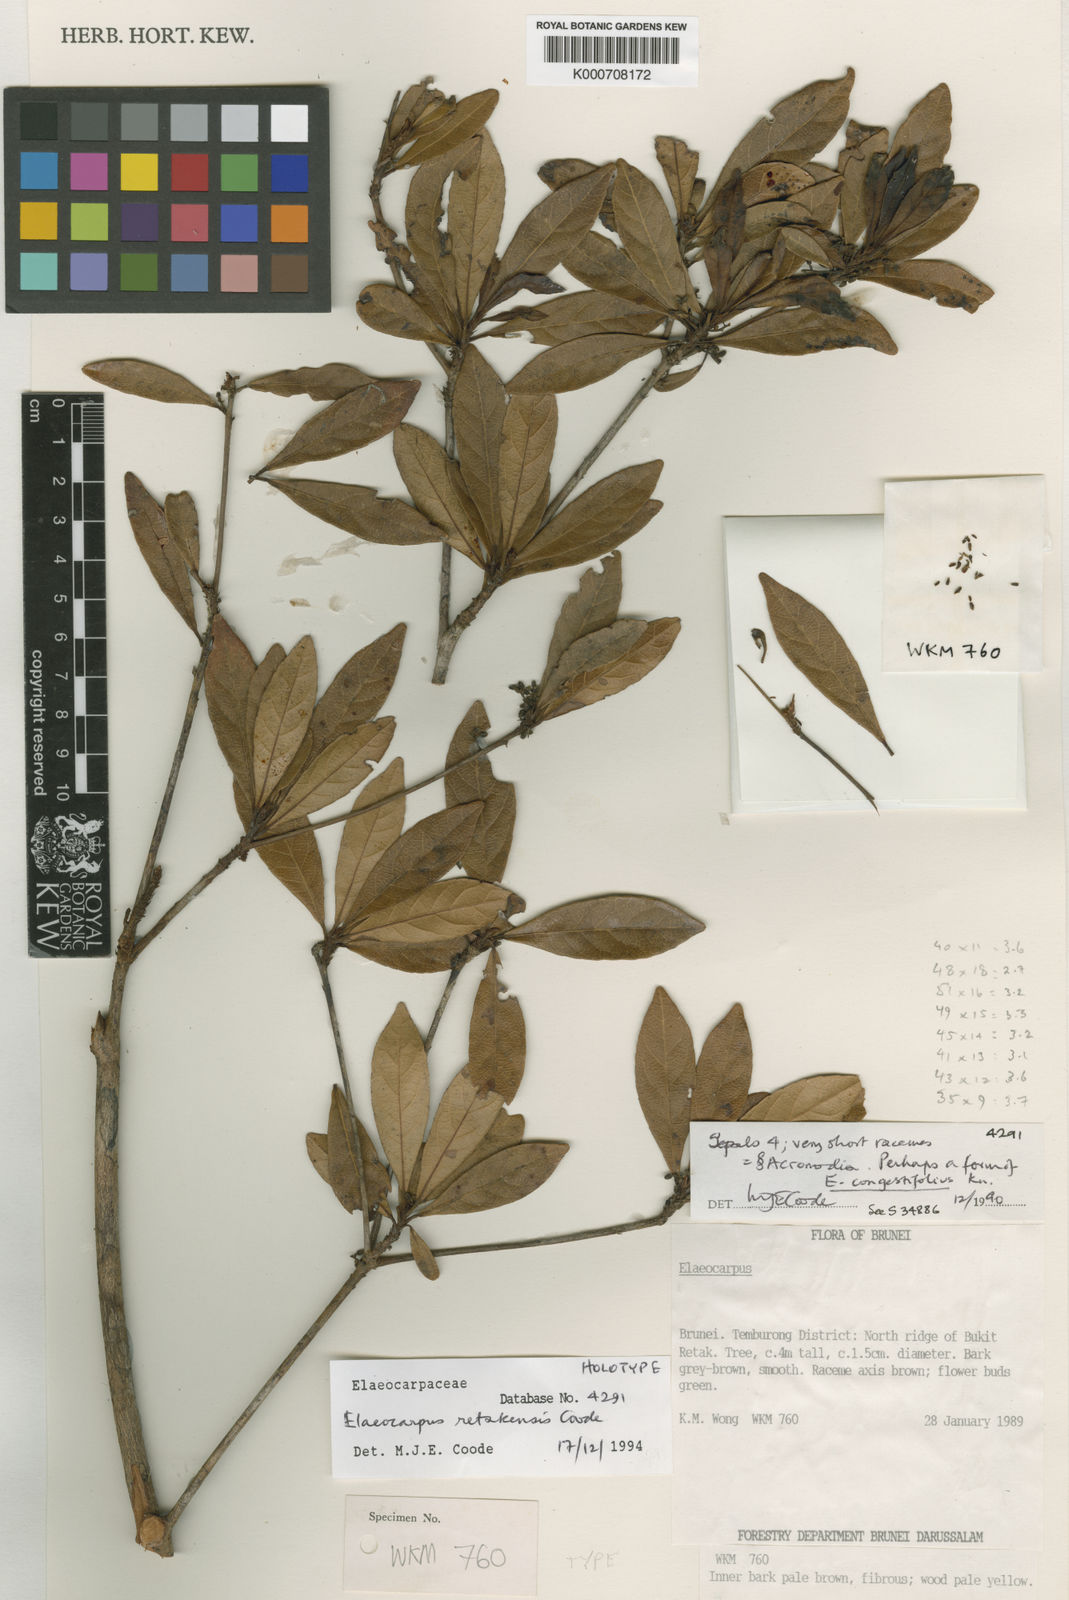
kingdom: Plantae
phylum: Tracheophyta
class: Magnoliopsida
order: Oxalidales
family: Elaeocarpaceae
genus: Elaeocarpus
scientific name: Elaeocarpus retakensis
